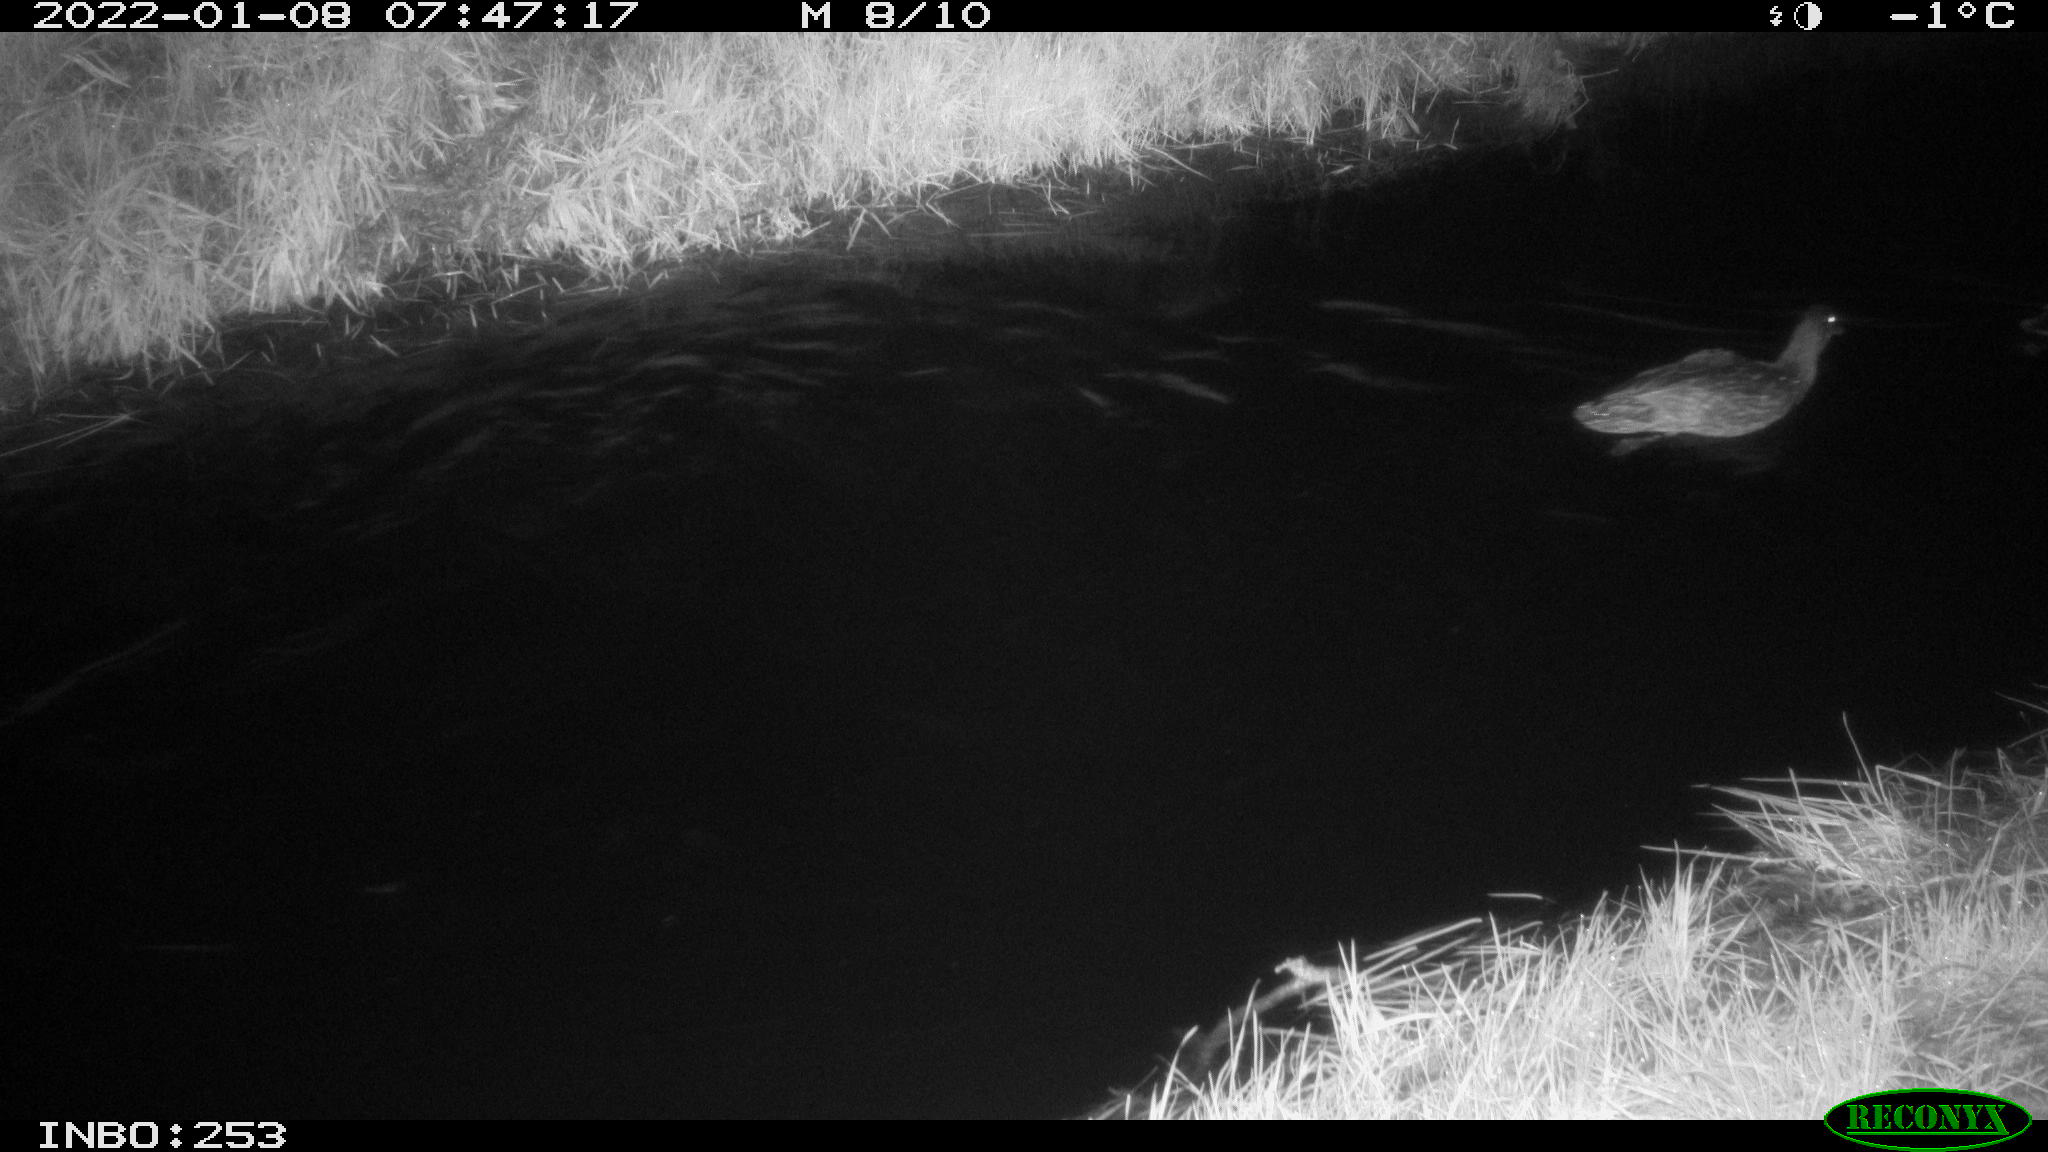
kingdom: Animalia
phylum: Chordata
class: Aves
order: Anseriformes
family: Anatidae
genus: Anas
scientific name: Anas
